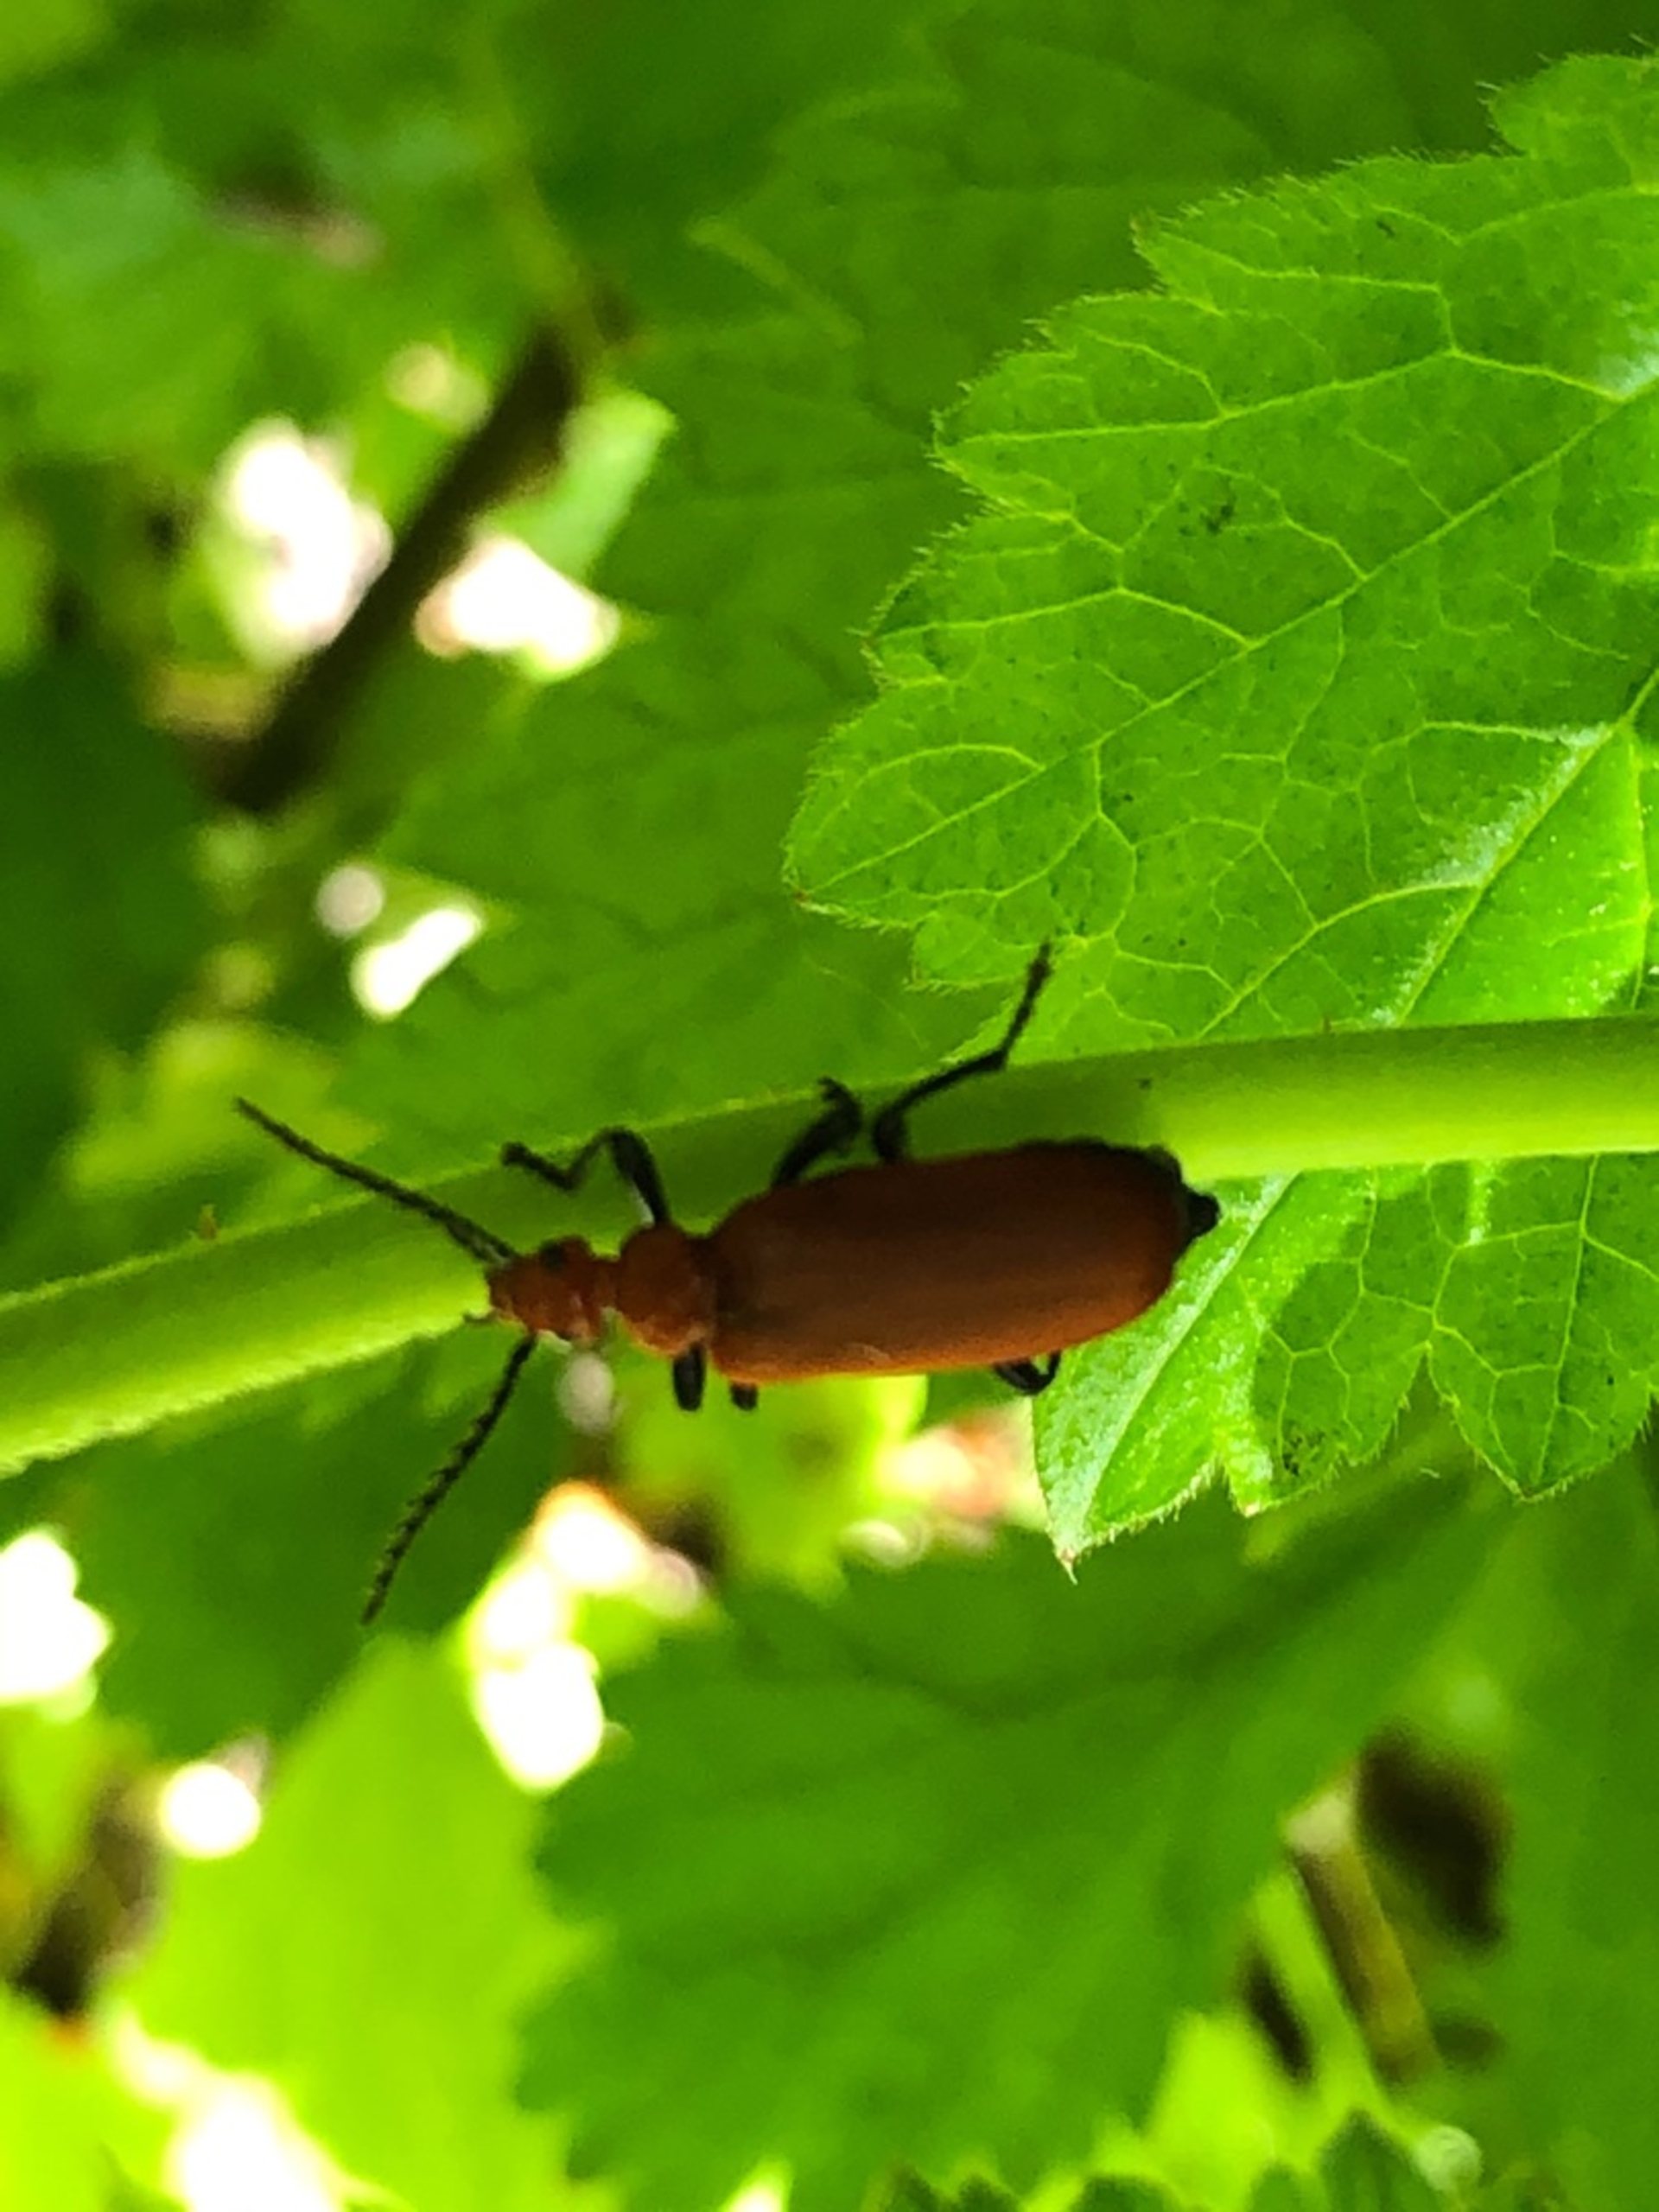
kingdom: Animalia
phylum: Arthropoda
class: Insecta
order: Coleoptera
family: Pyrochroidae
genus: Pyrochroa
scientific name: Pyrochroa serraticornis
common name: Rødhovedet kardinalbille
